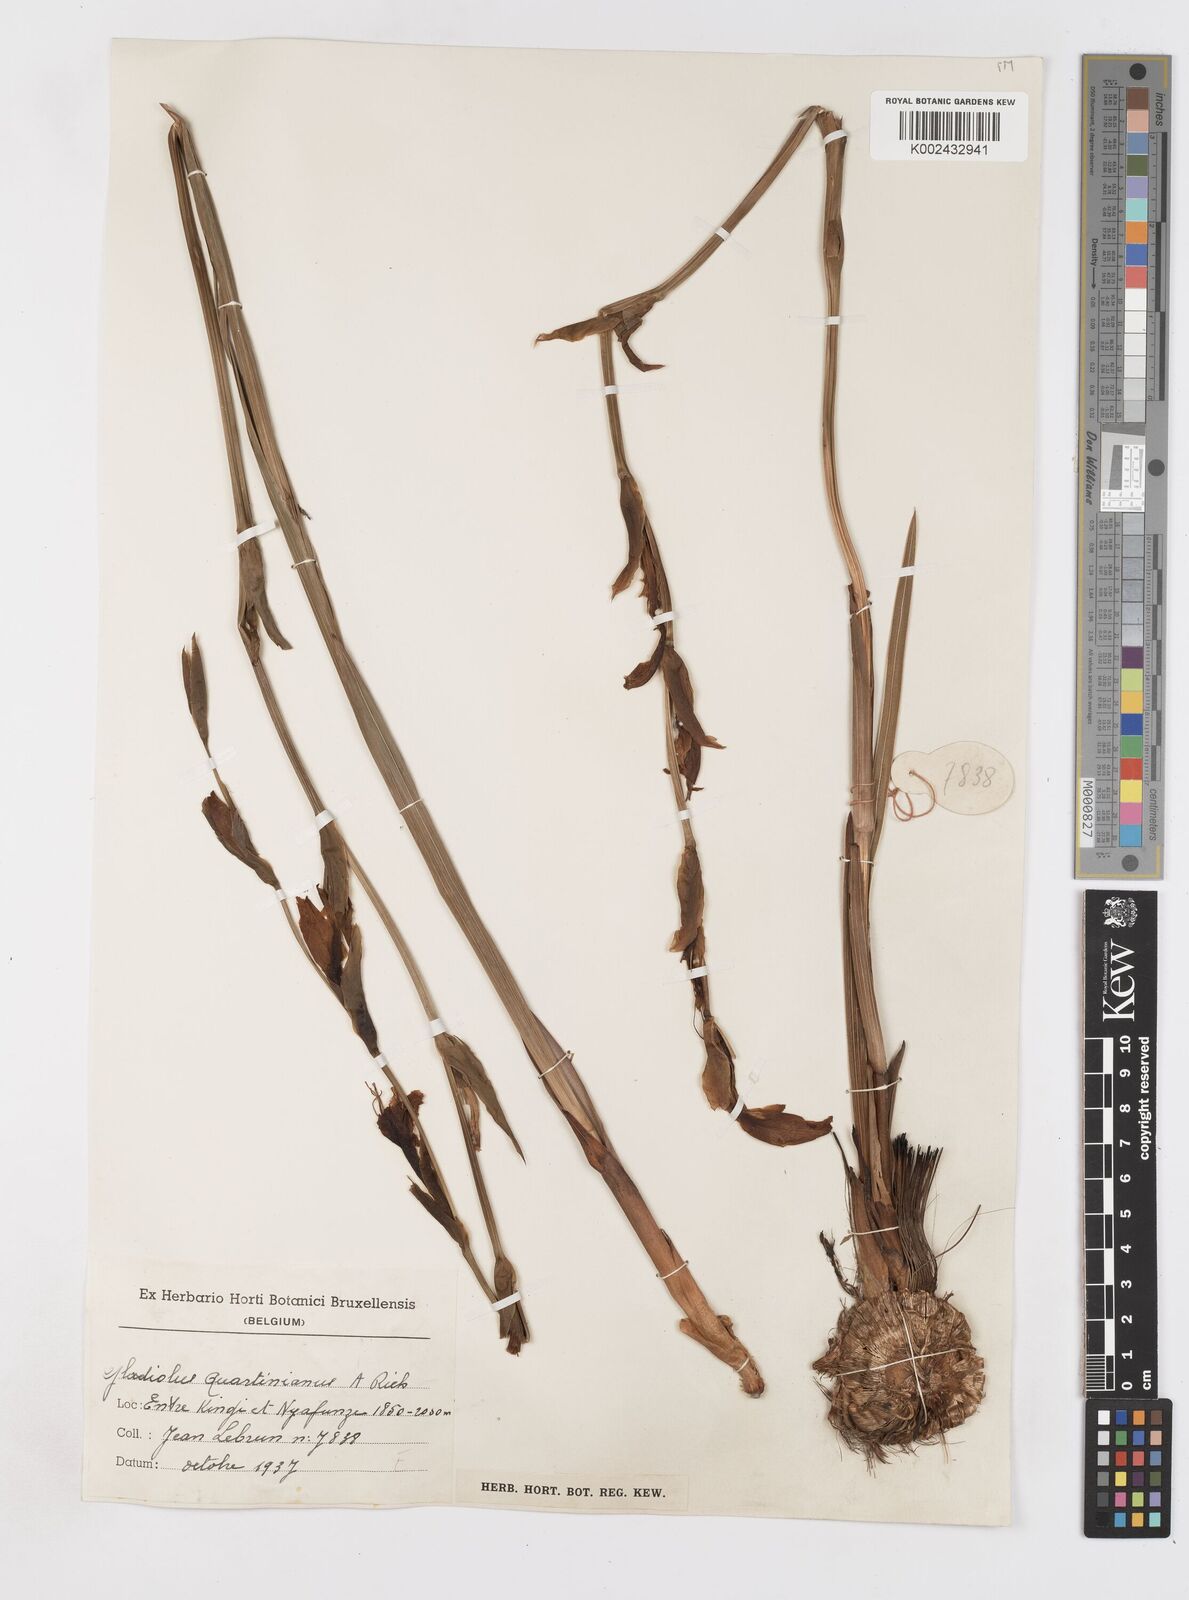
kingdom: Plantae
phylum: Tracheophyta
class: Liliopsida
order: Asparagales
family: Iridaceae
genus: Gladiolus
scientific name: Gladiolus dalenii
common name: Cornflag
